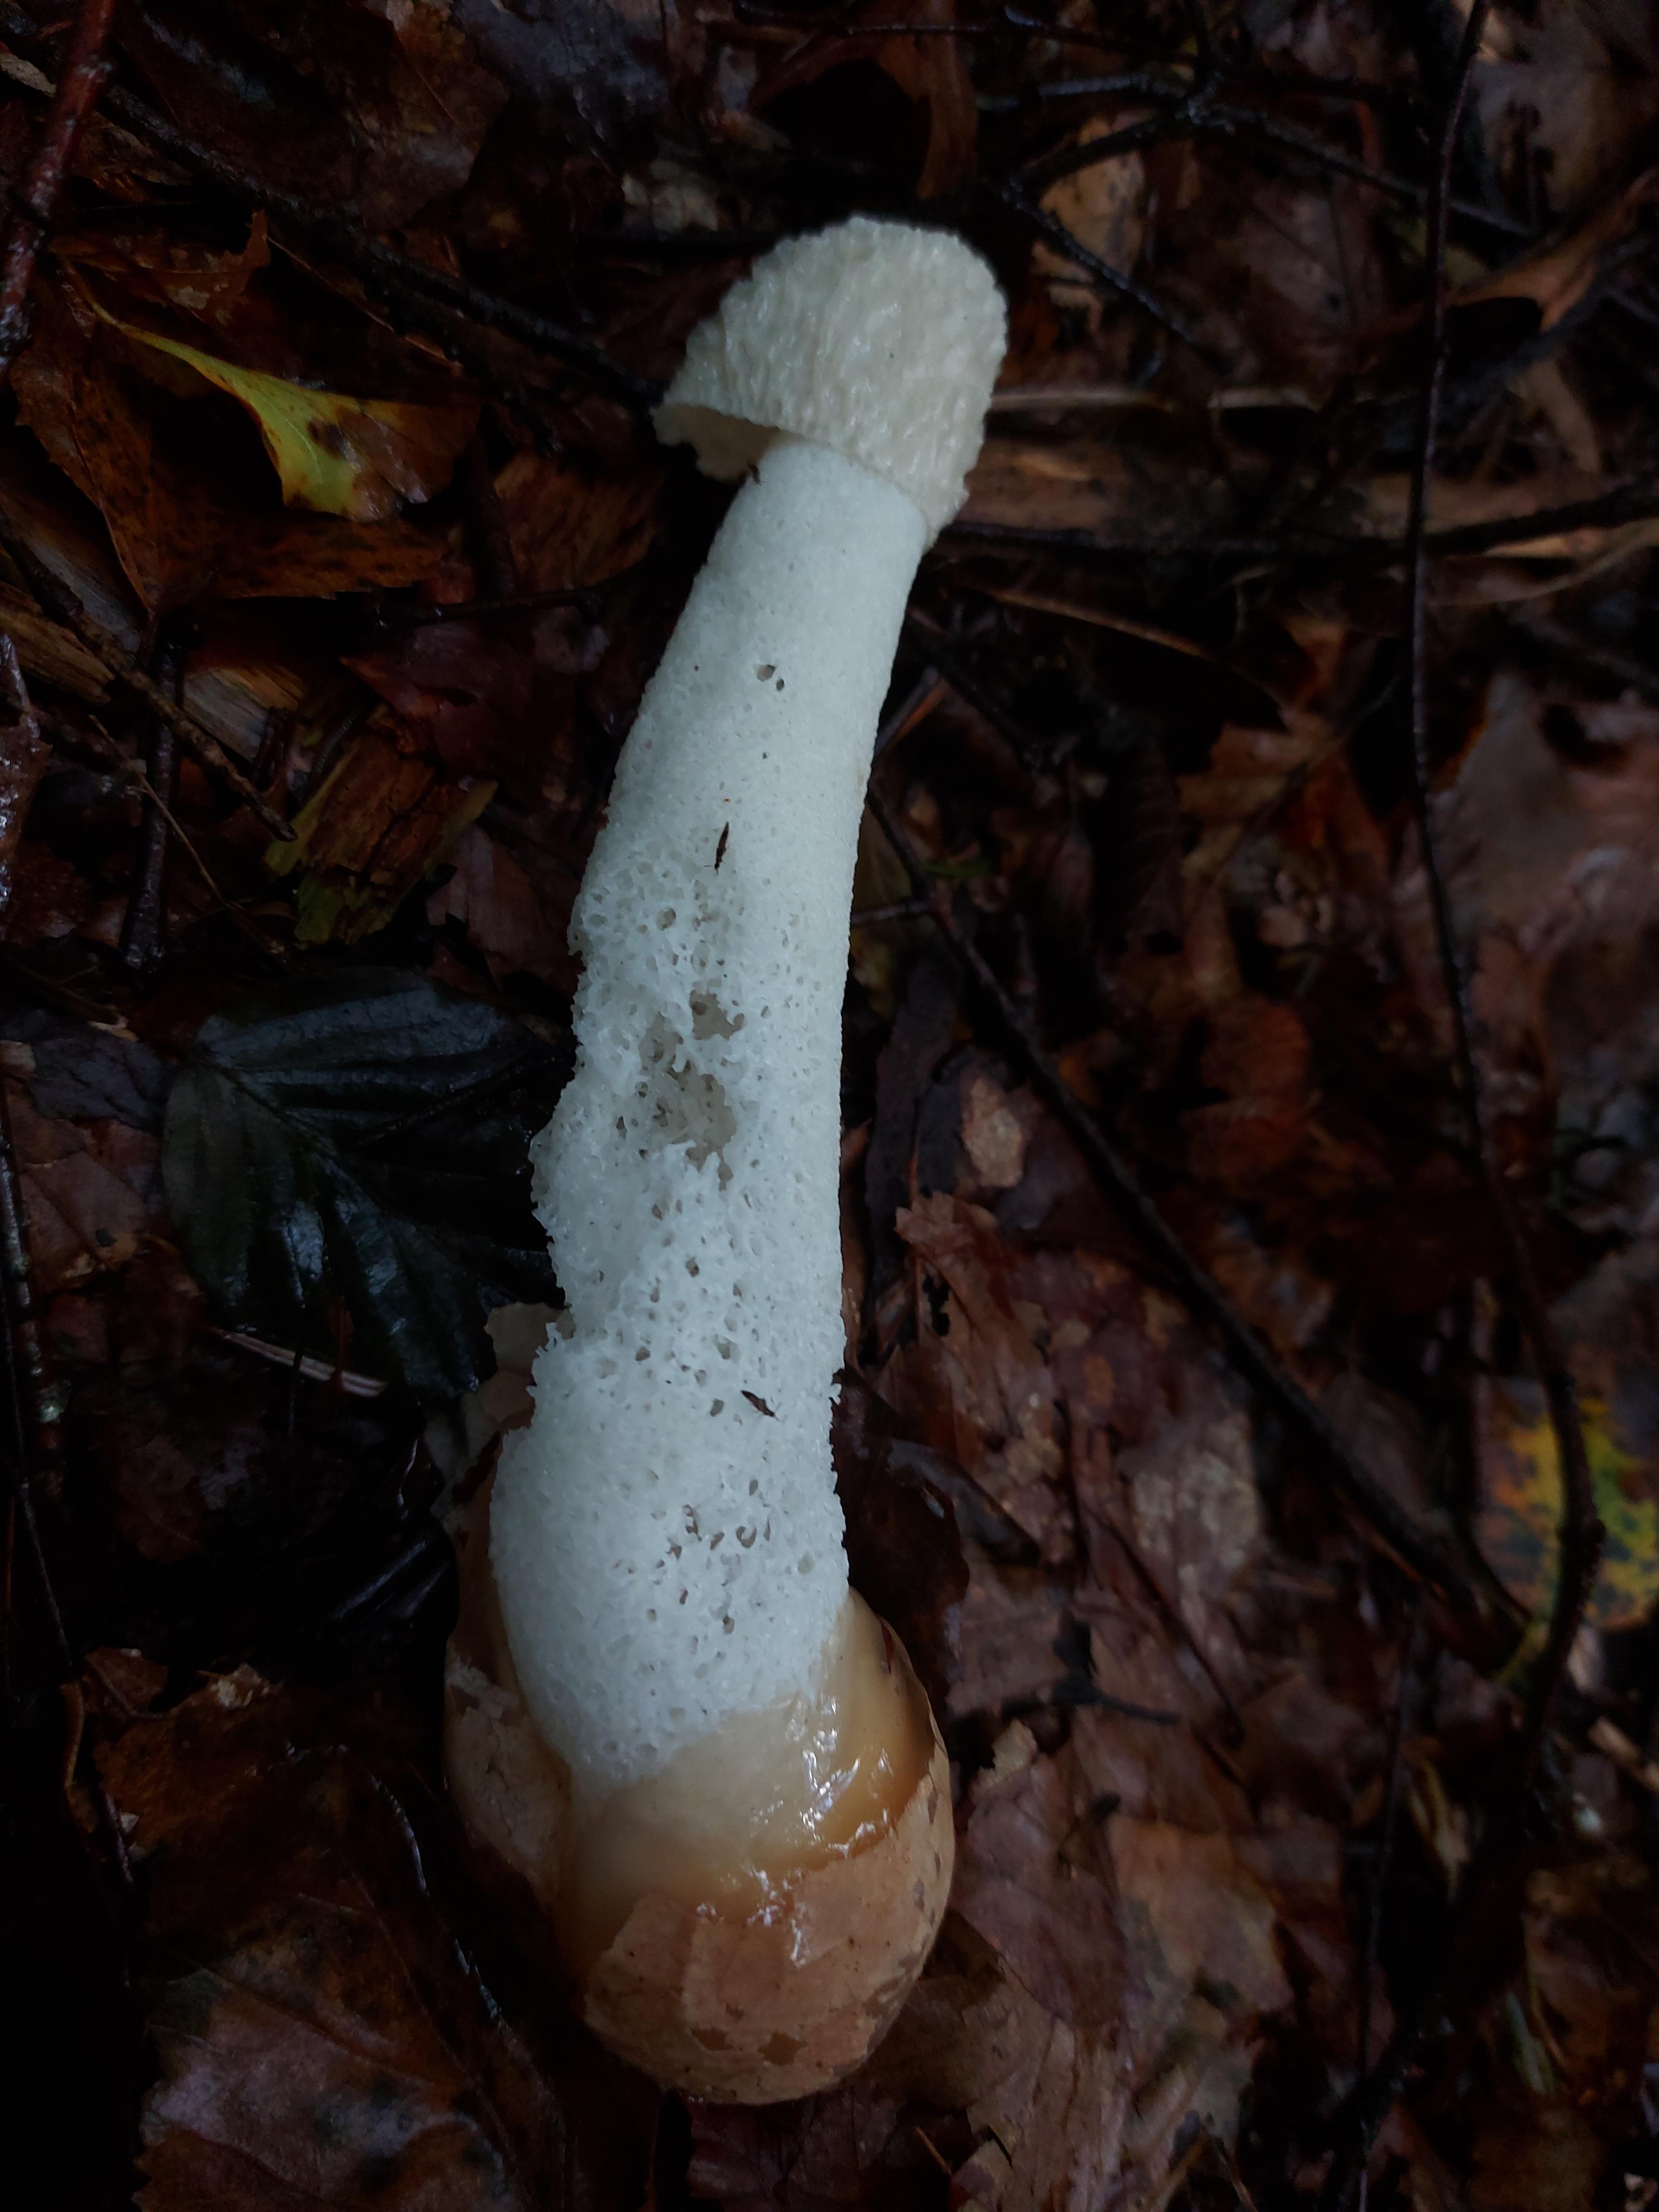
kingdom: Fungi
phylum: Basidiomycota
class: Agaricomycetes
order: Phallales
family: Phallaceae
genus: Phallus
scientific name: Phallus impudicus
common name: almindelig stinksvamp
